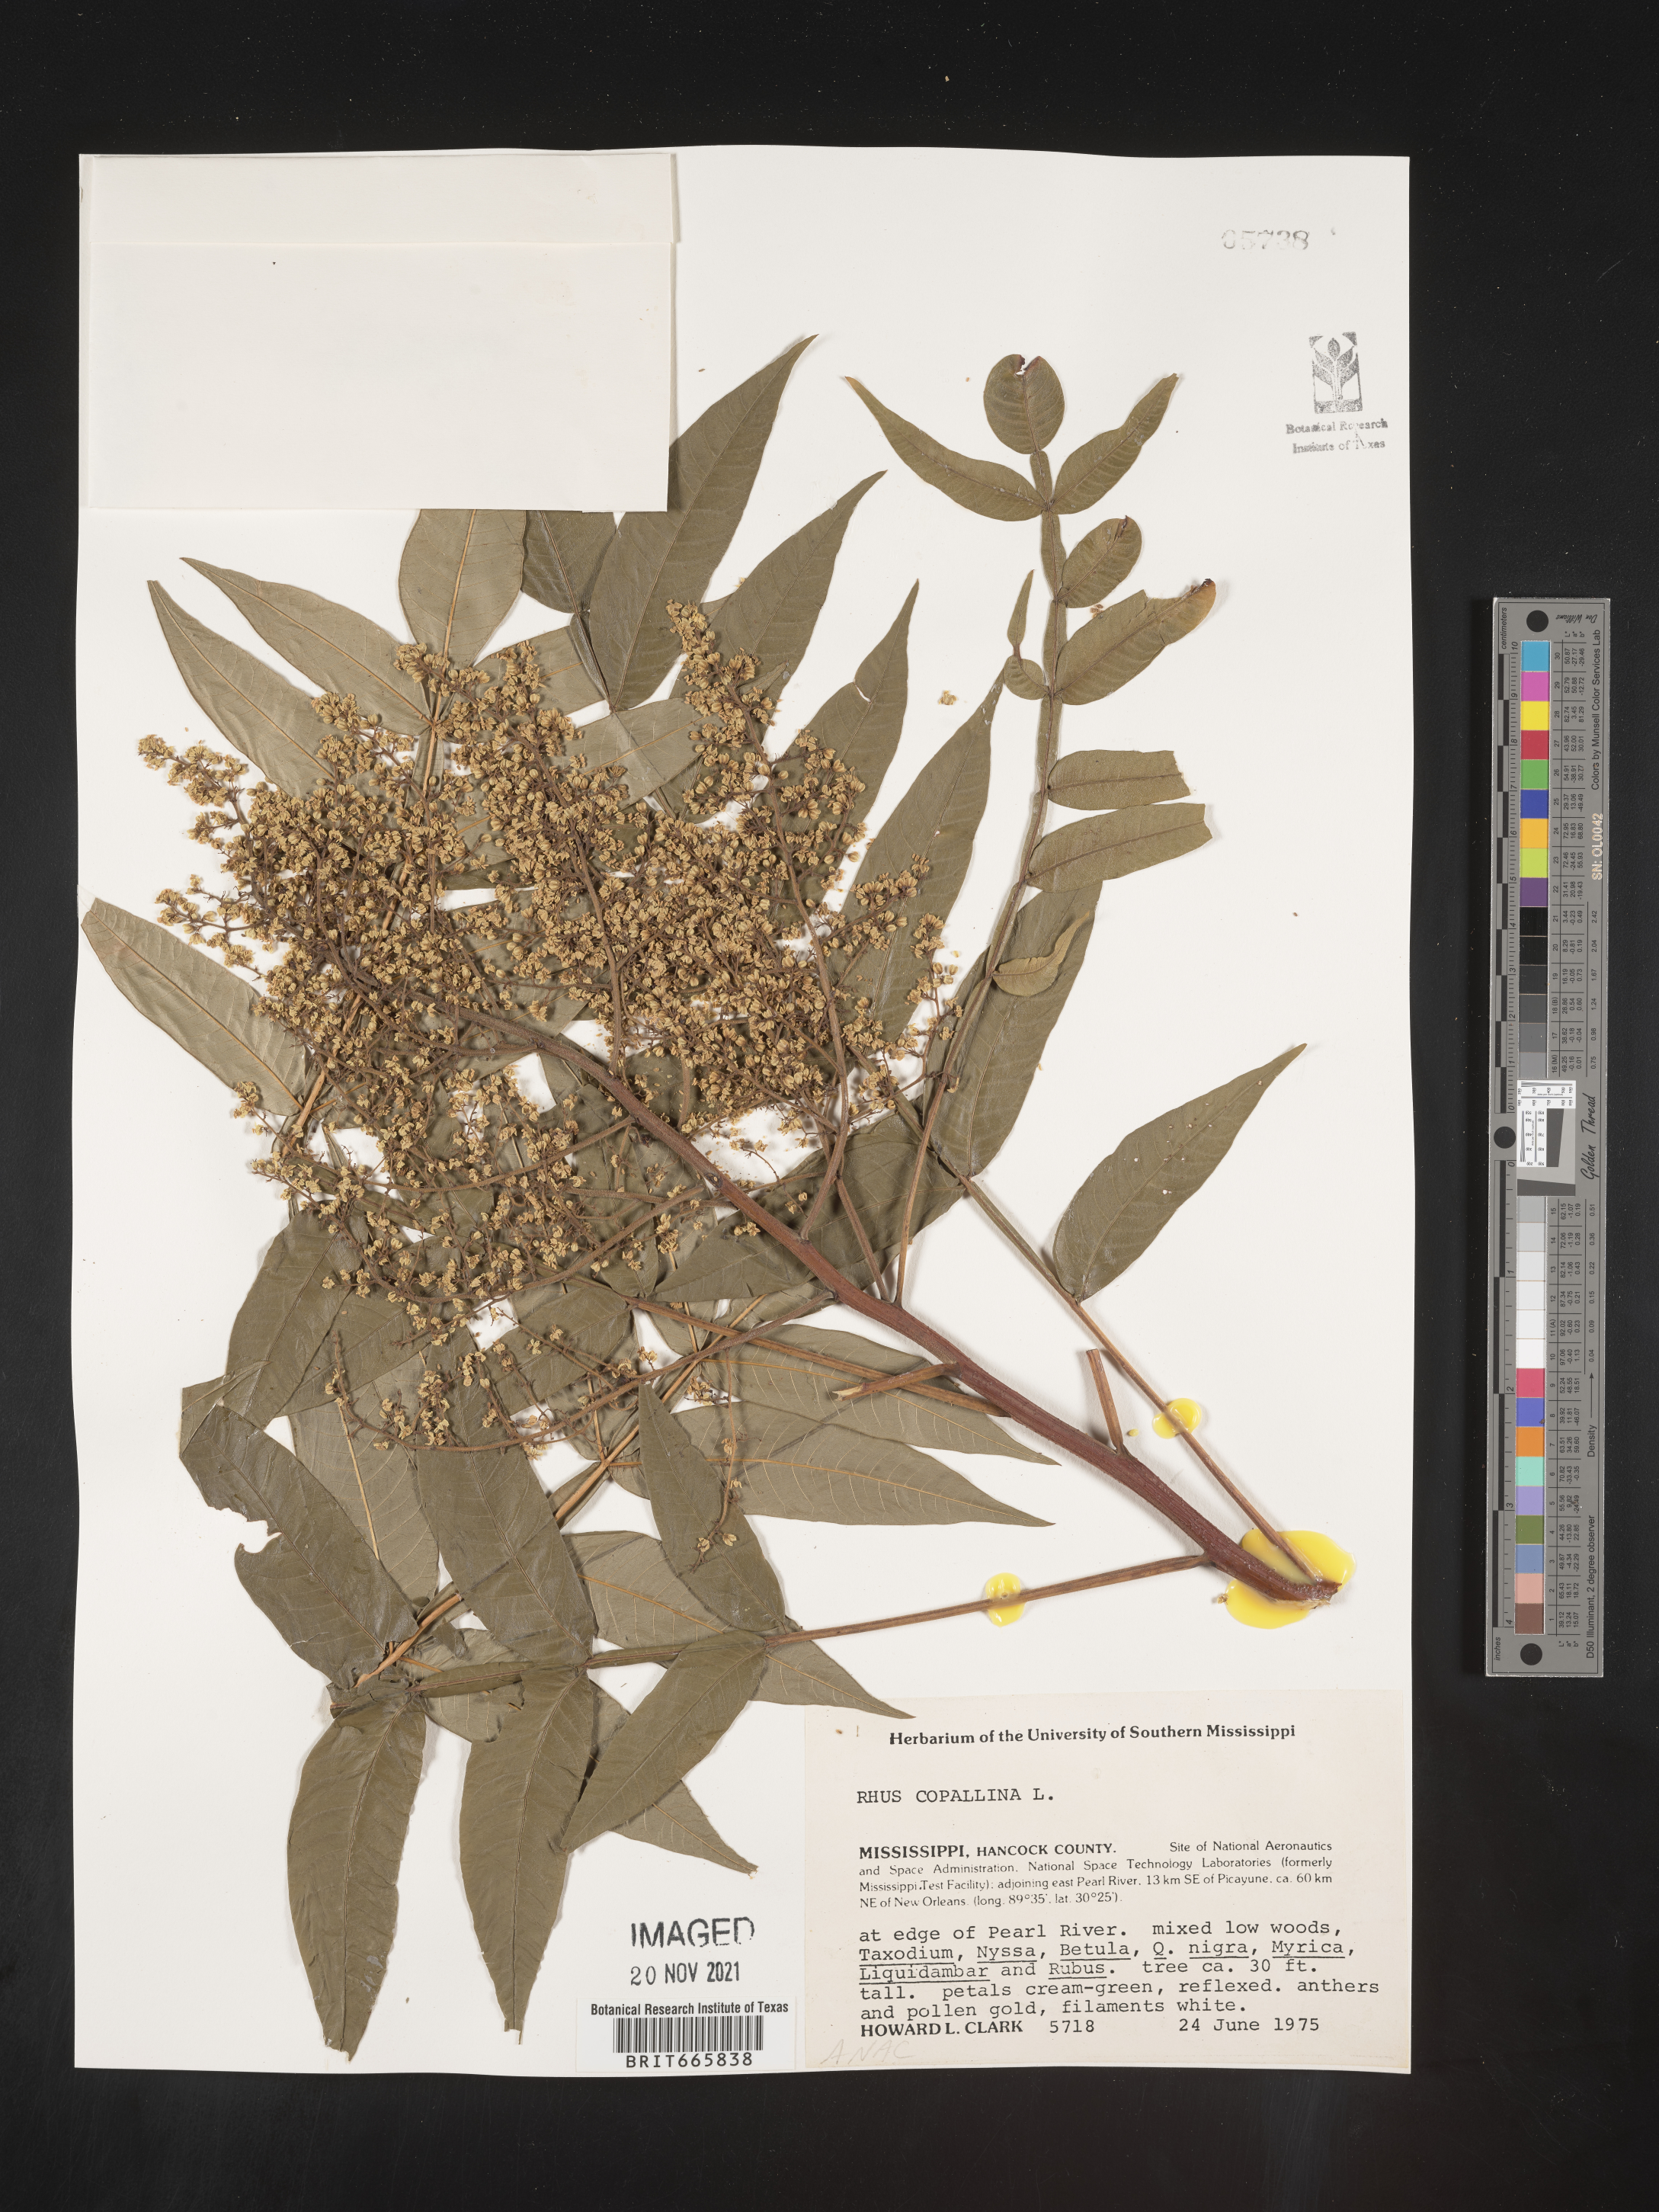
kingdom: Plantae
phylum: Tracheophyta
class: Magnoliopsida
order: Sapindales
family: Anacardiaceae
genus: Rhus
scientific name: Rhus copallina
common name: Shining sumac
